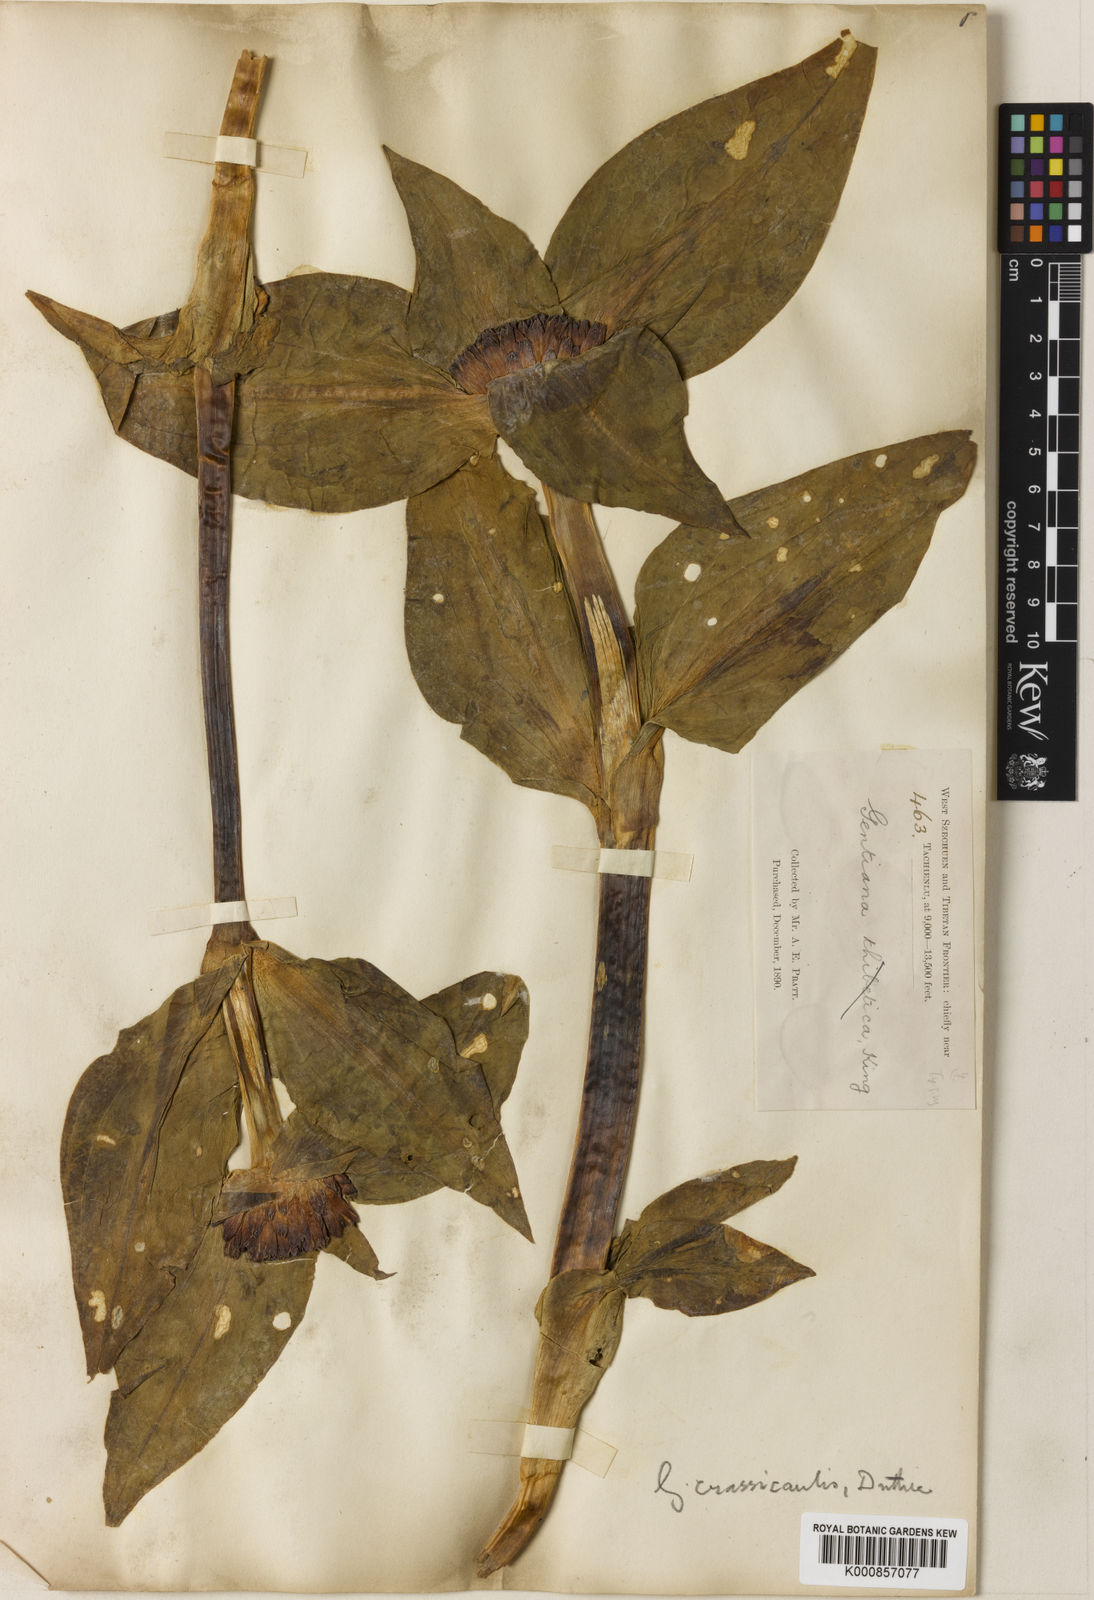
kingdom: Plantae
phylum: Tracheophyta
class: Magnoliopsida
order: Gentianales
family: Gentianaceae
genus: Gentiana
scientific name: Gentiana
